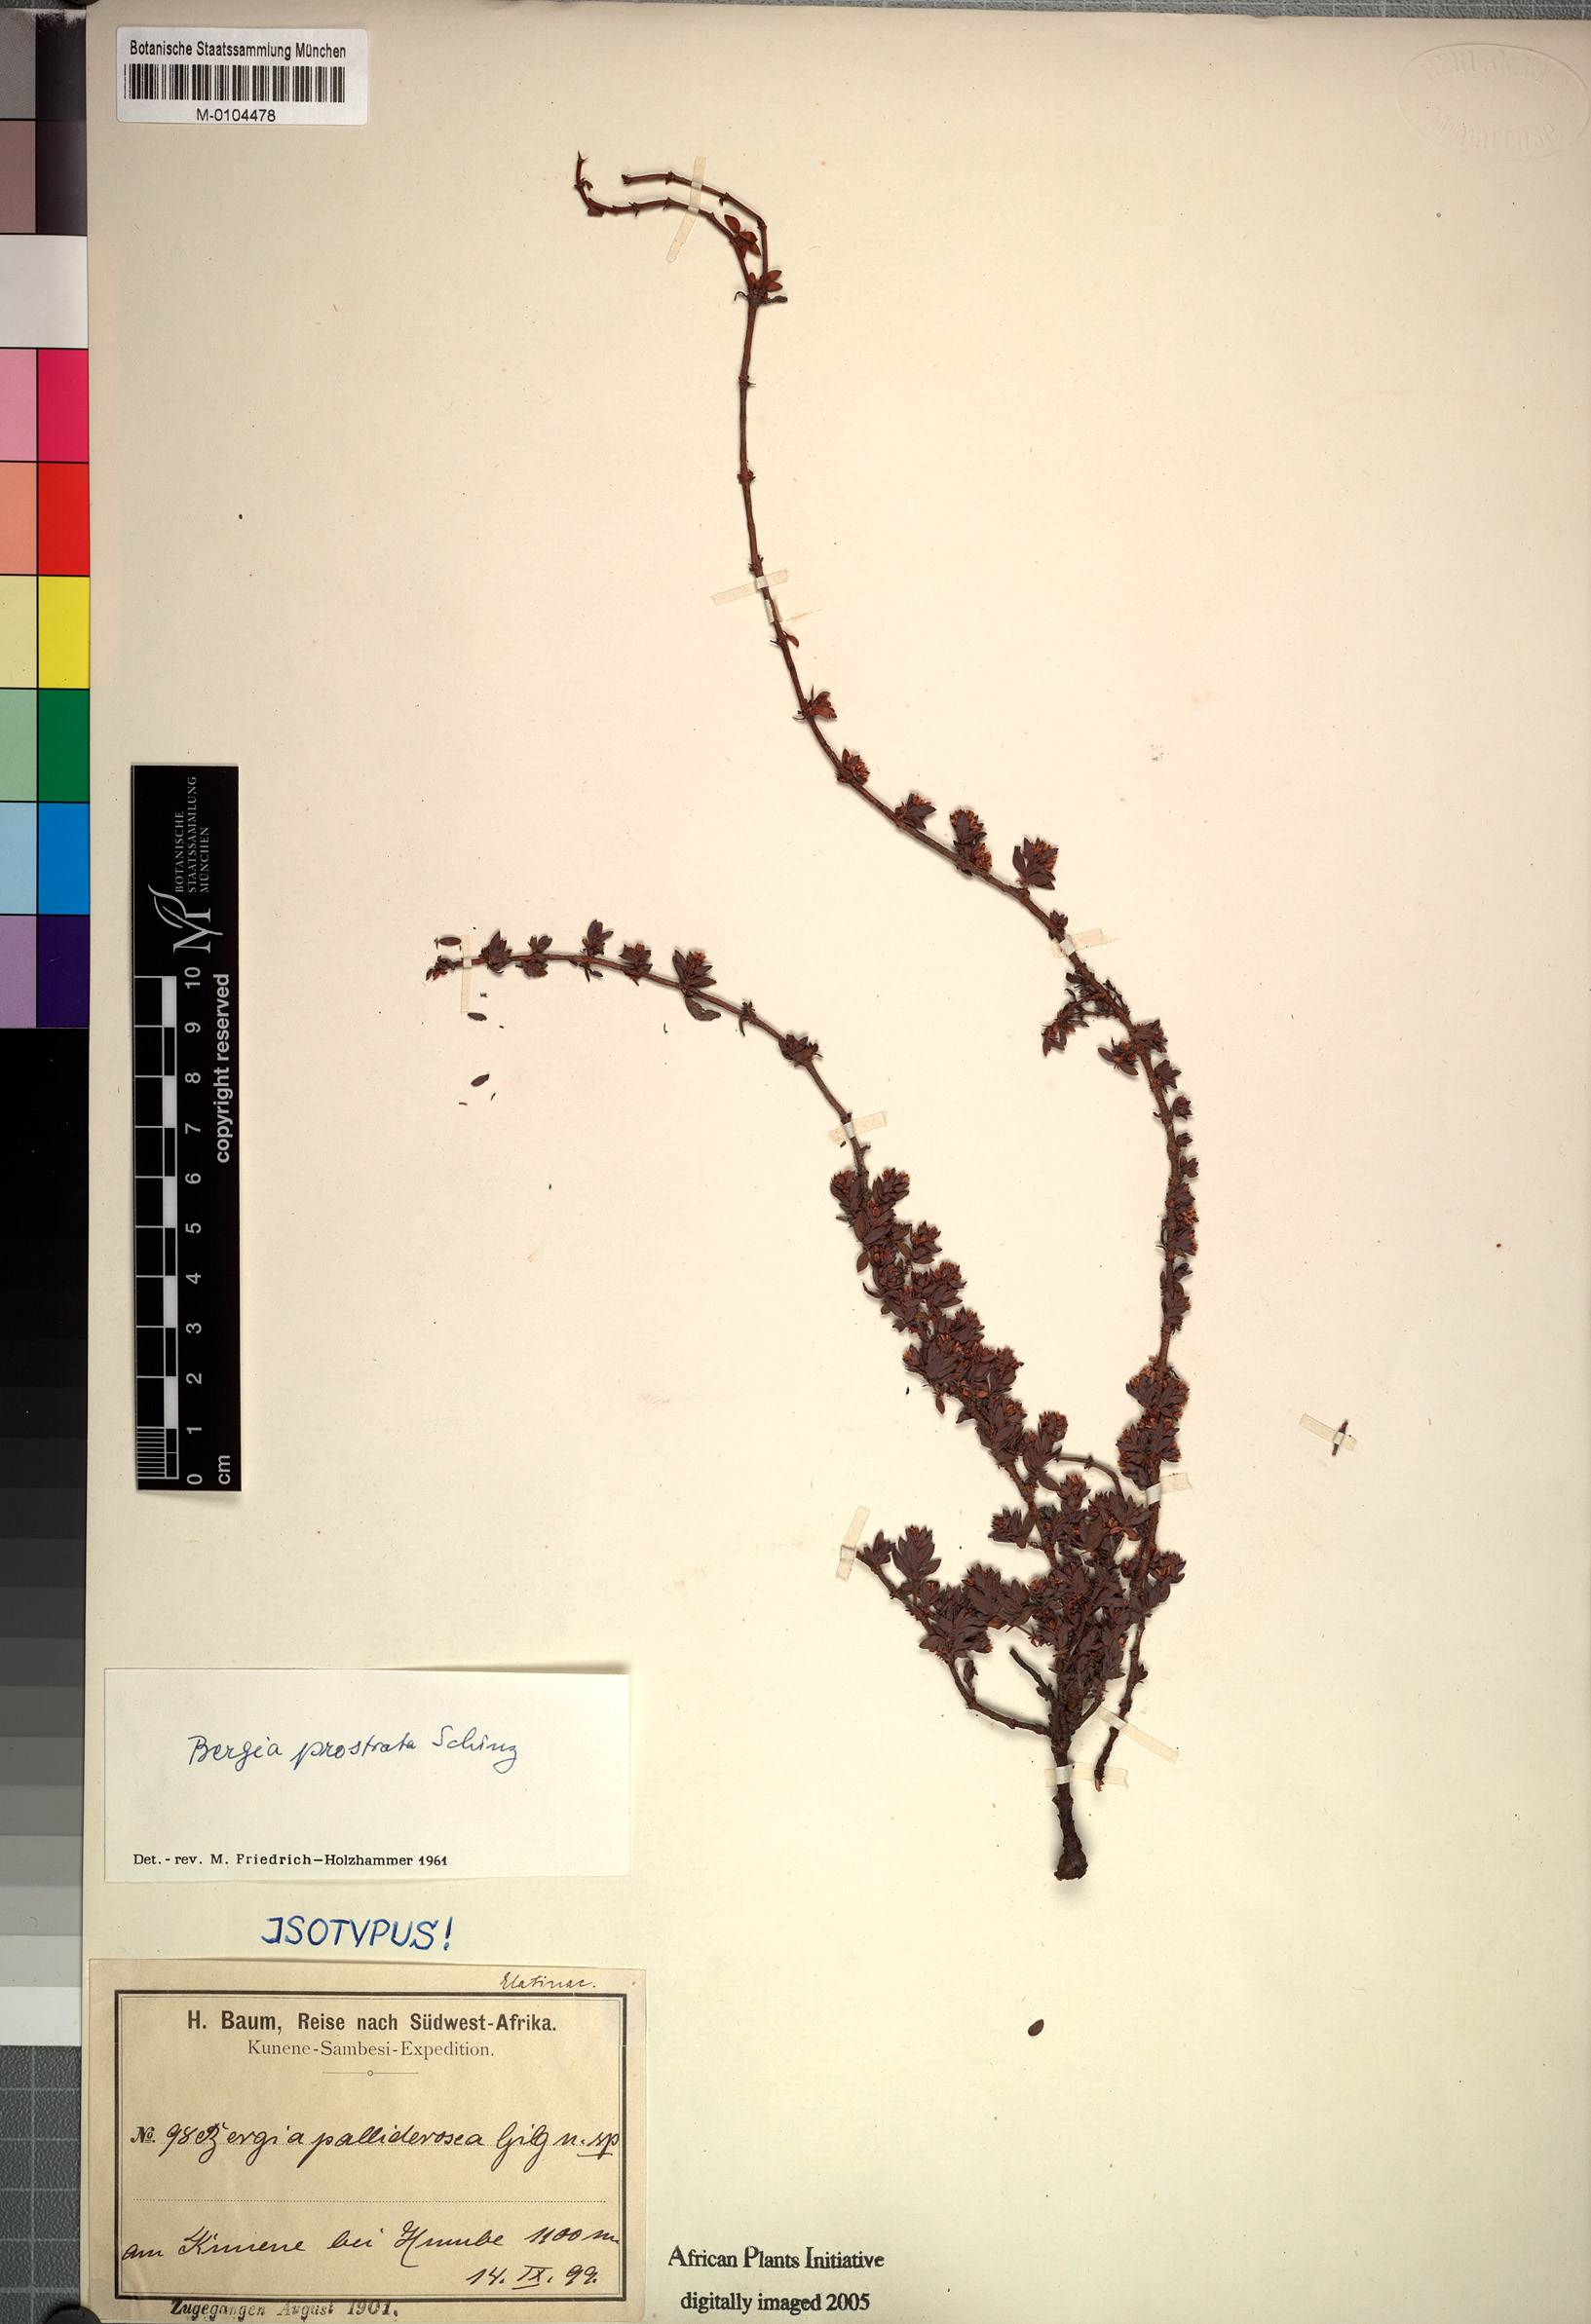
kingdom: Plantae
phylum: Tracheophyta
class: Magnoliopsida
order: Malpighiales
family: Elatinaceae
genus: Bergia
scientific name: Bergia pentheriana
